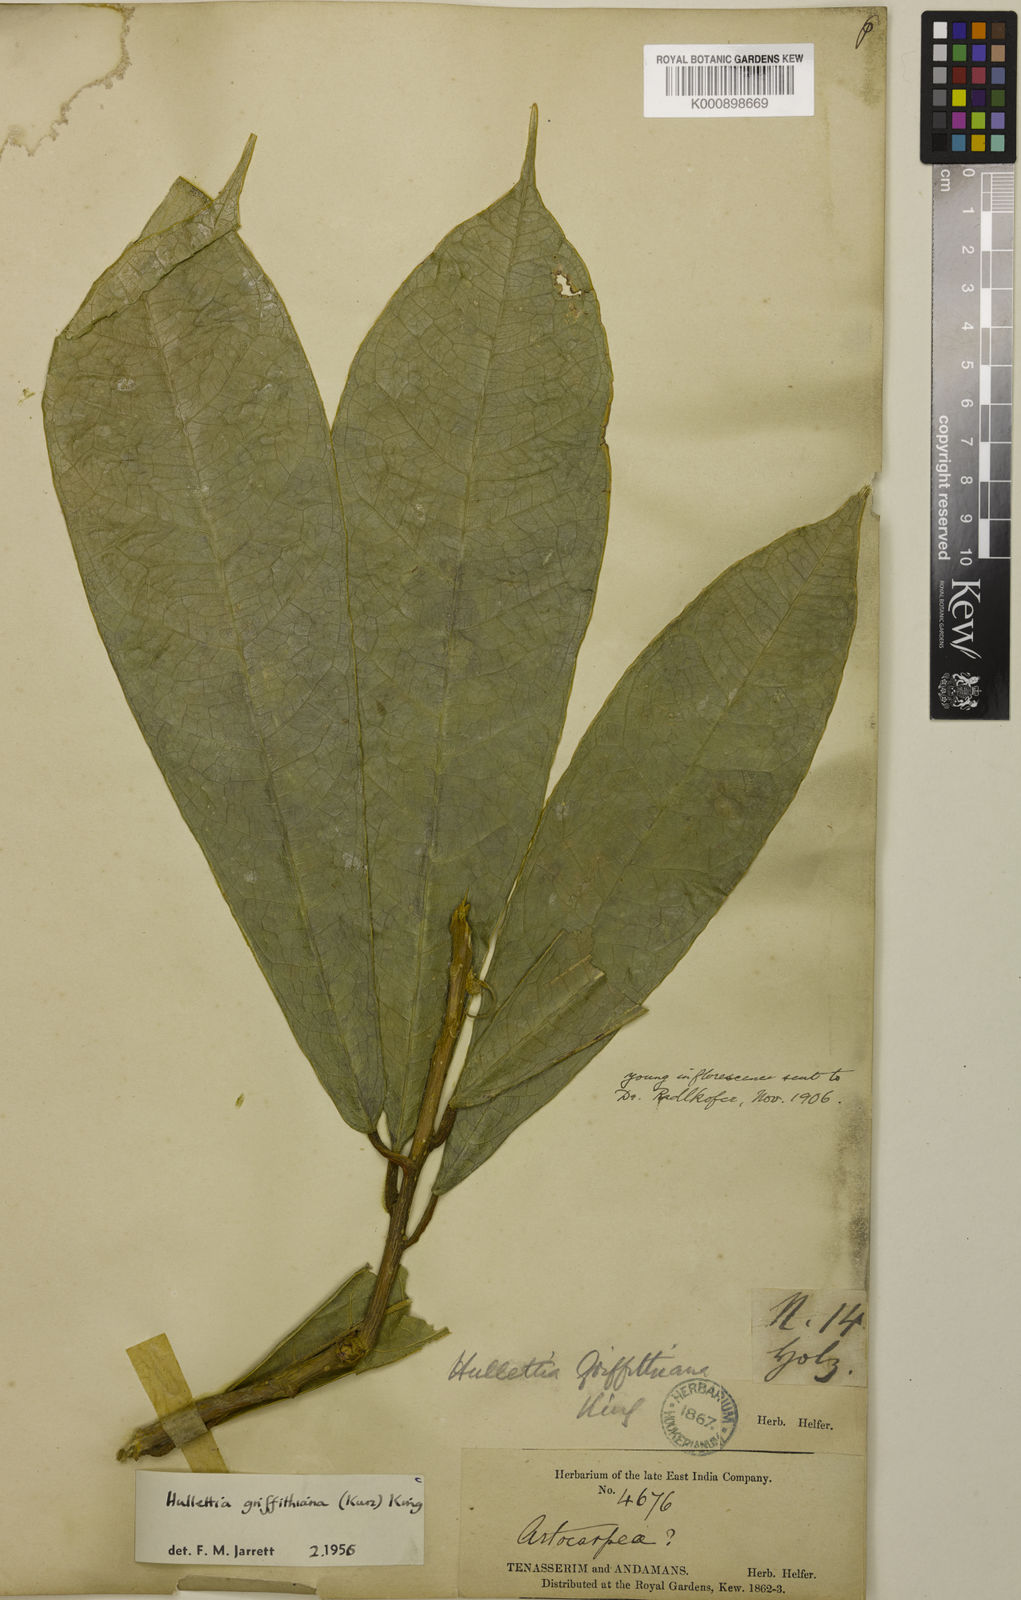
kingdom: Plantae
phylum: Tracheophyta
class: Magnoliopsida
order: Rosales
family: Moraceae
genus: Hullettia
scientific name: Hullettia
